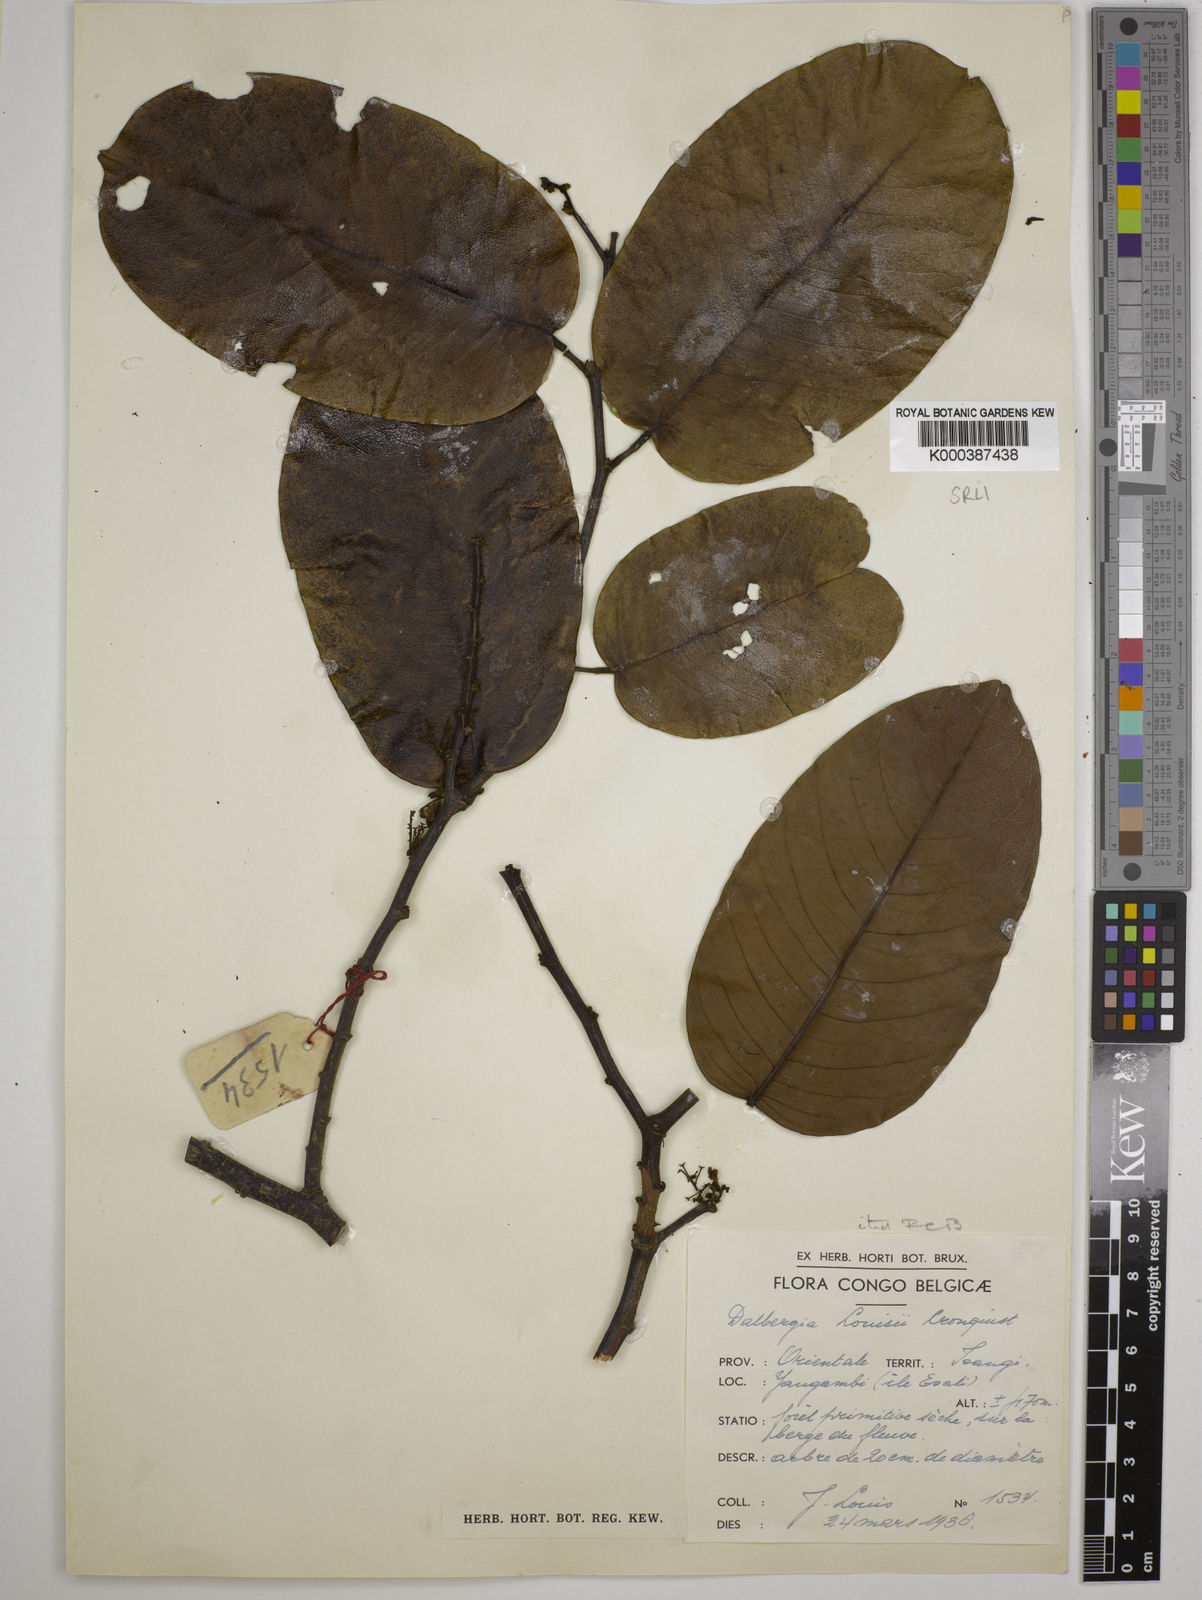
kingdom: Plantae
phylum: Tracheophyta
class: Magnoliopsida
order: Fabales
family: Fabaceae
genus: Dalbergia
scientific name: Dalbergia louisii
